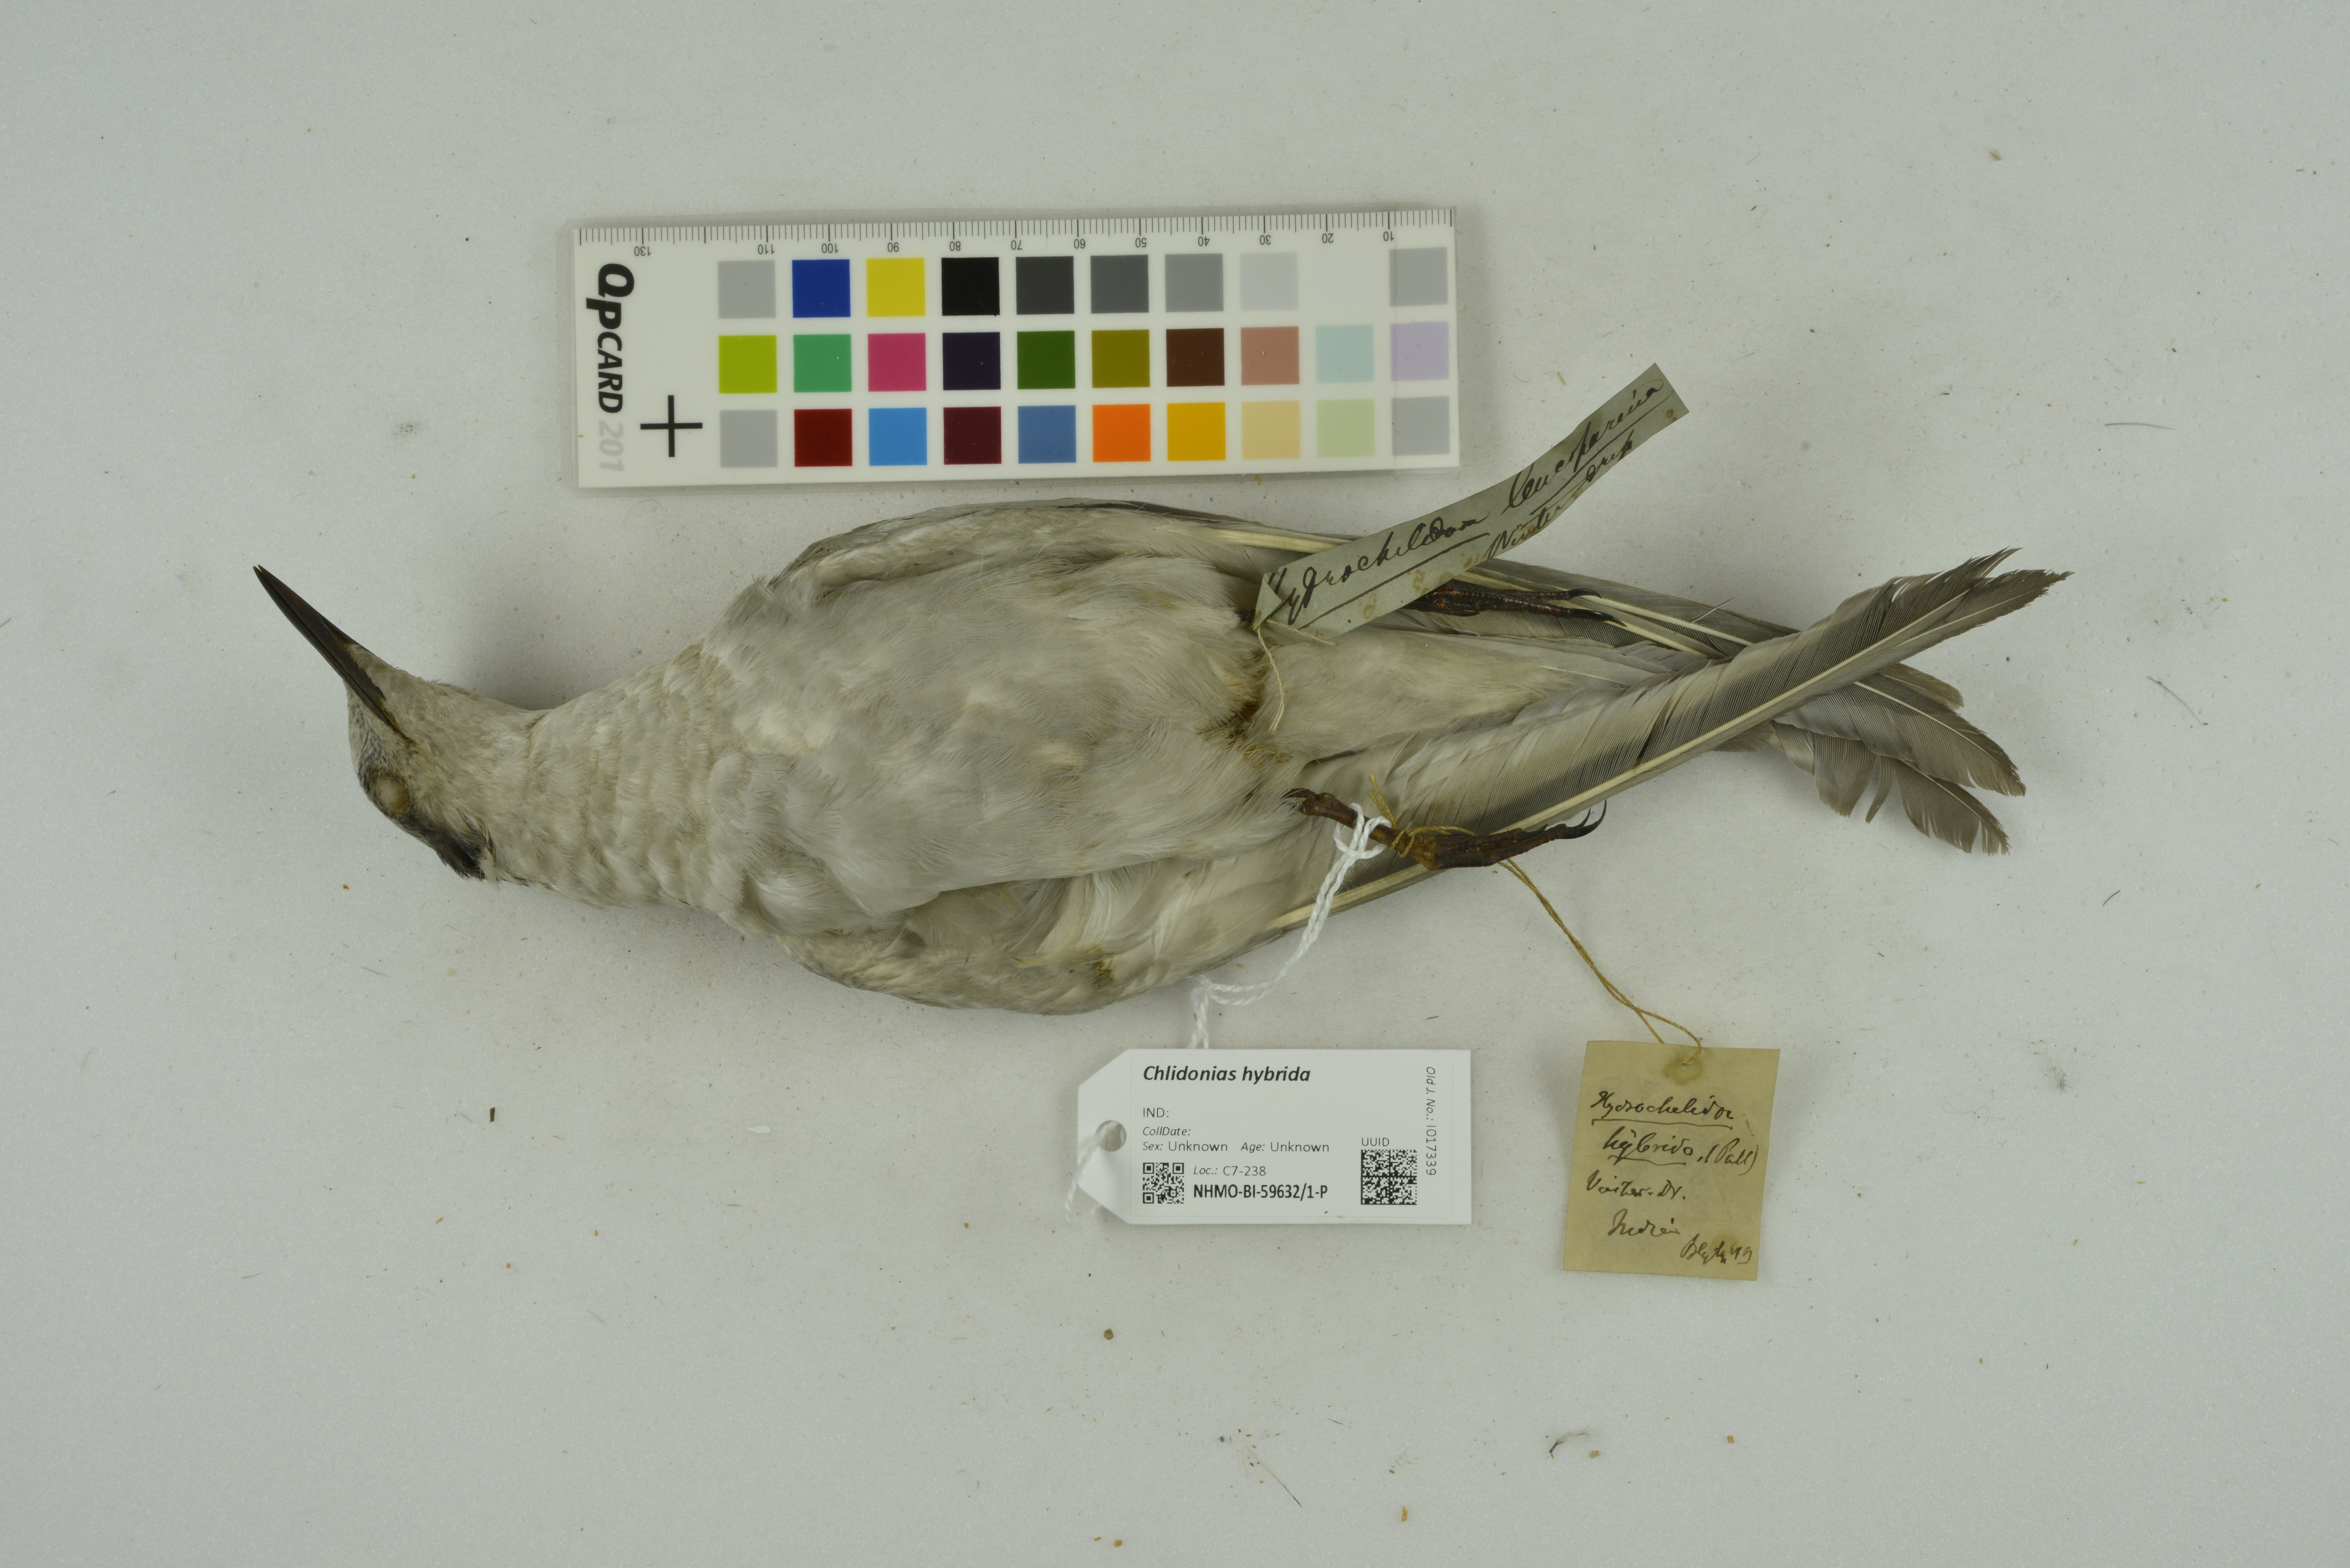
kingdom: Animalia
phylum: Chordata
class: Aves
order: Charadriiformes
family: Laridae
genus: Chlidonias
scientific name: Chlidonias hybrida
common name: Whiskered tern
